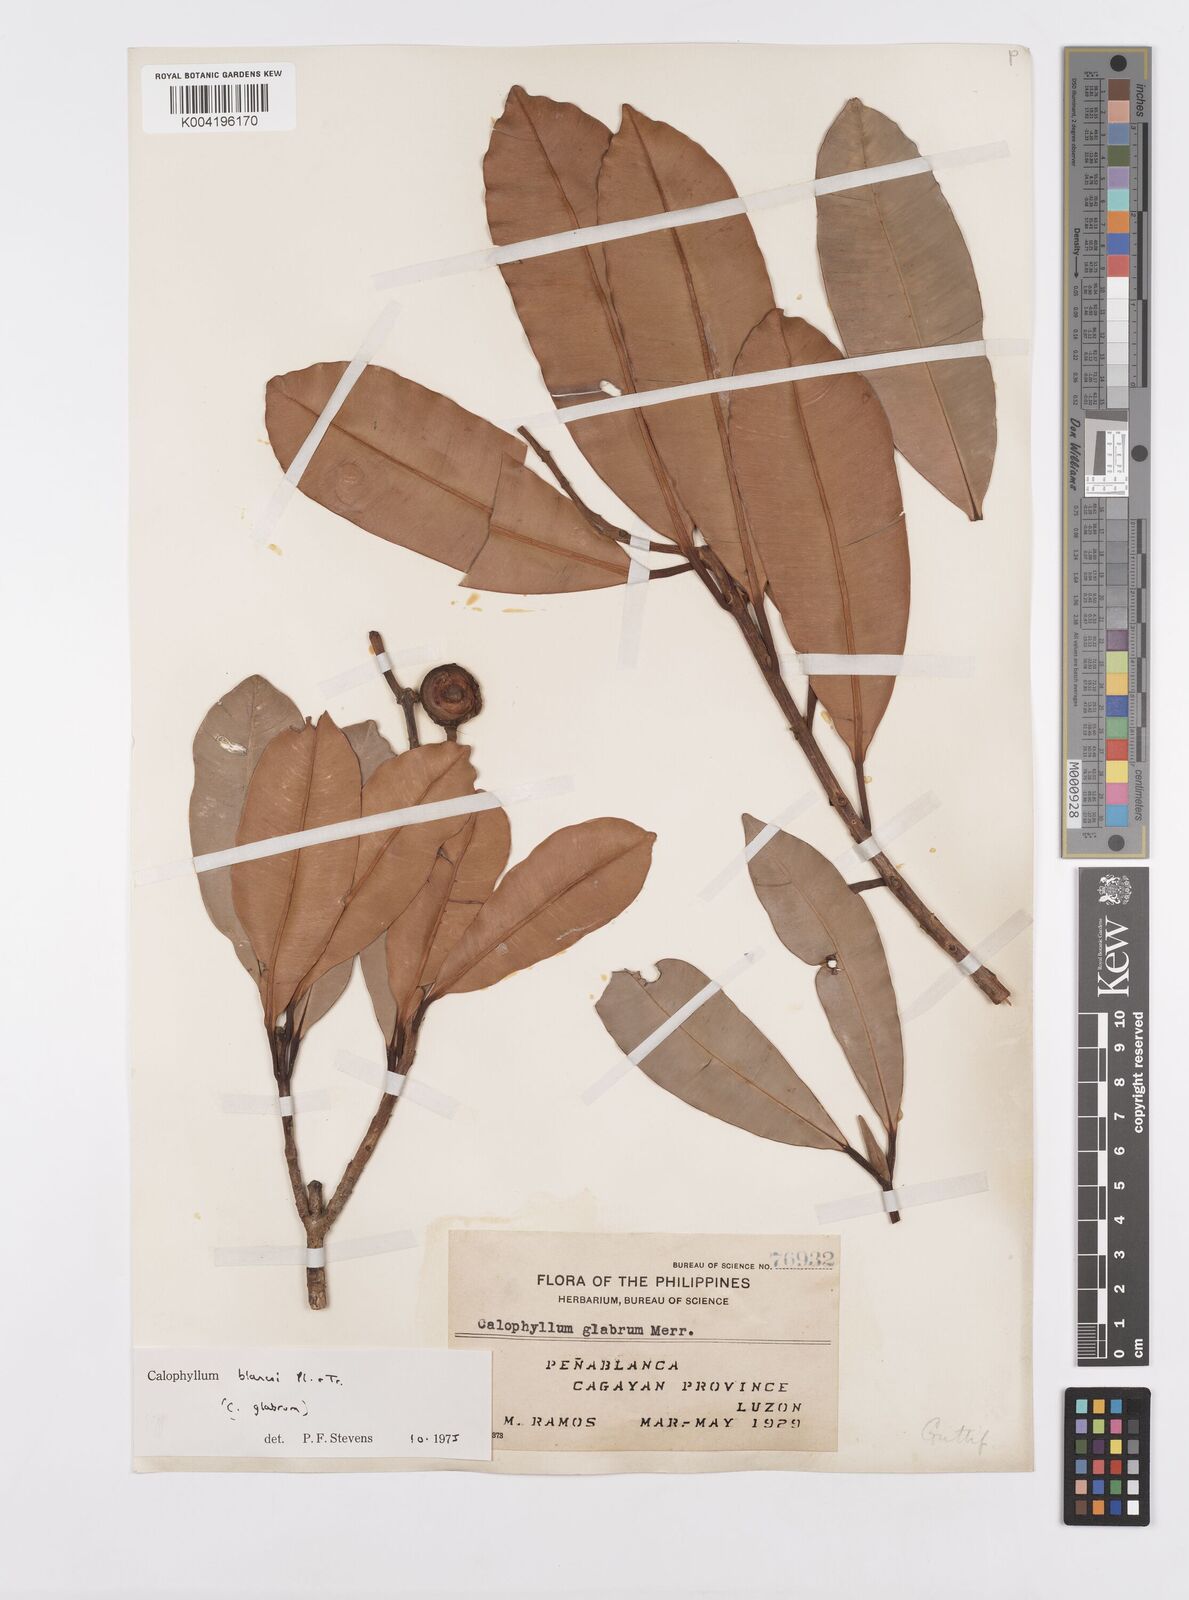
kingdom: Plantae
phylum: Tracheophyta
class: Magnoliopsida
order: Malpighiales
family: Calophyllaceae
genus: Calophyllum
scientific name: Calophyllum blancoi
